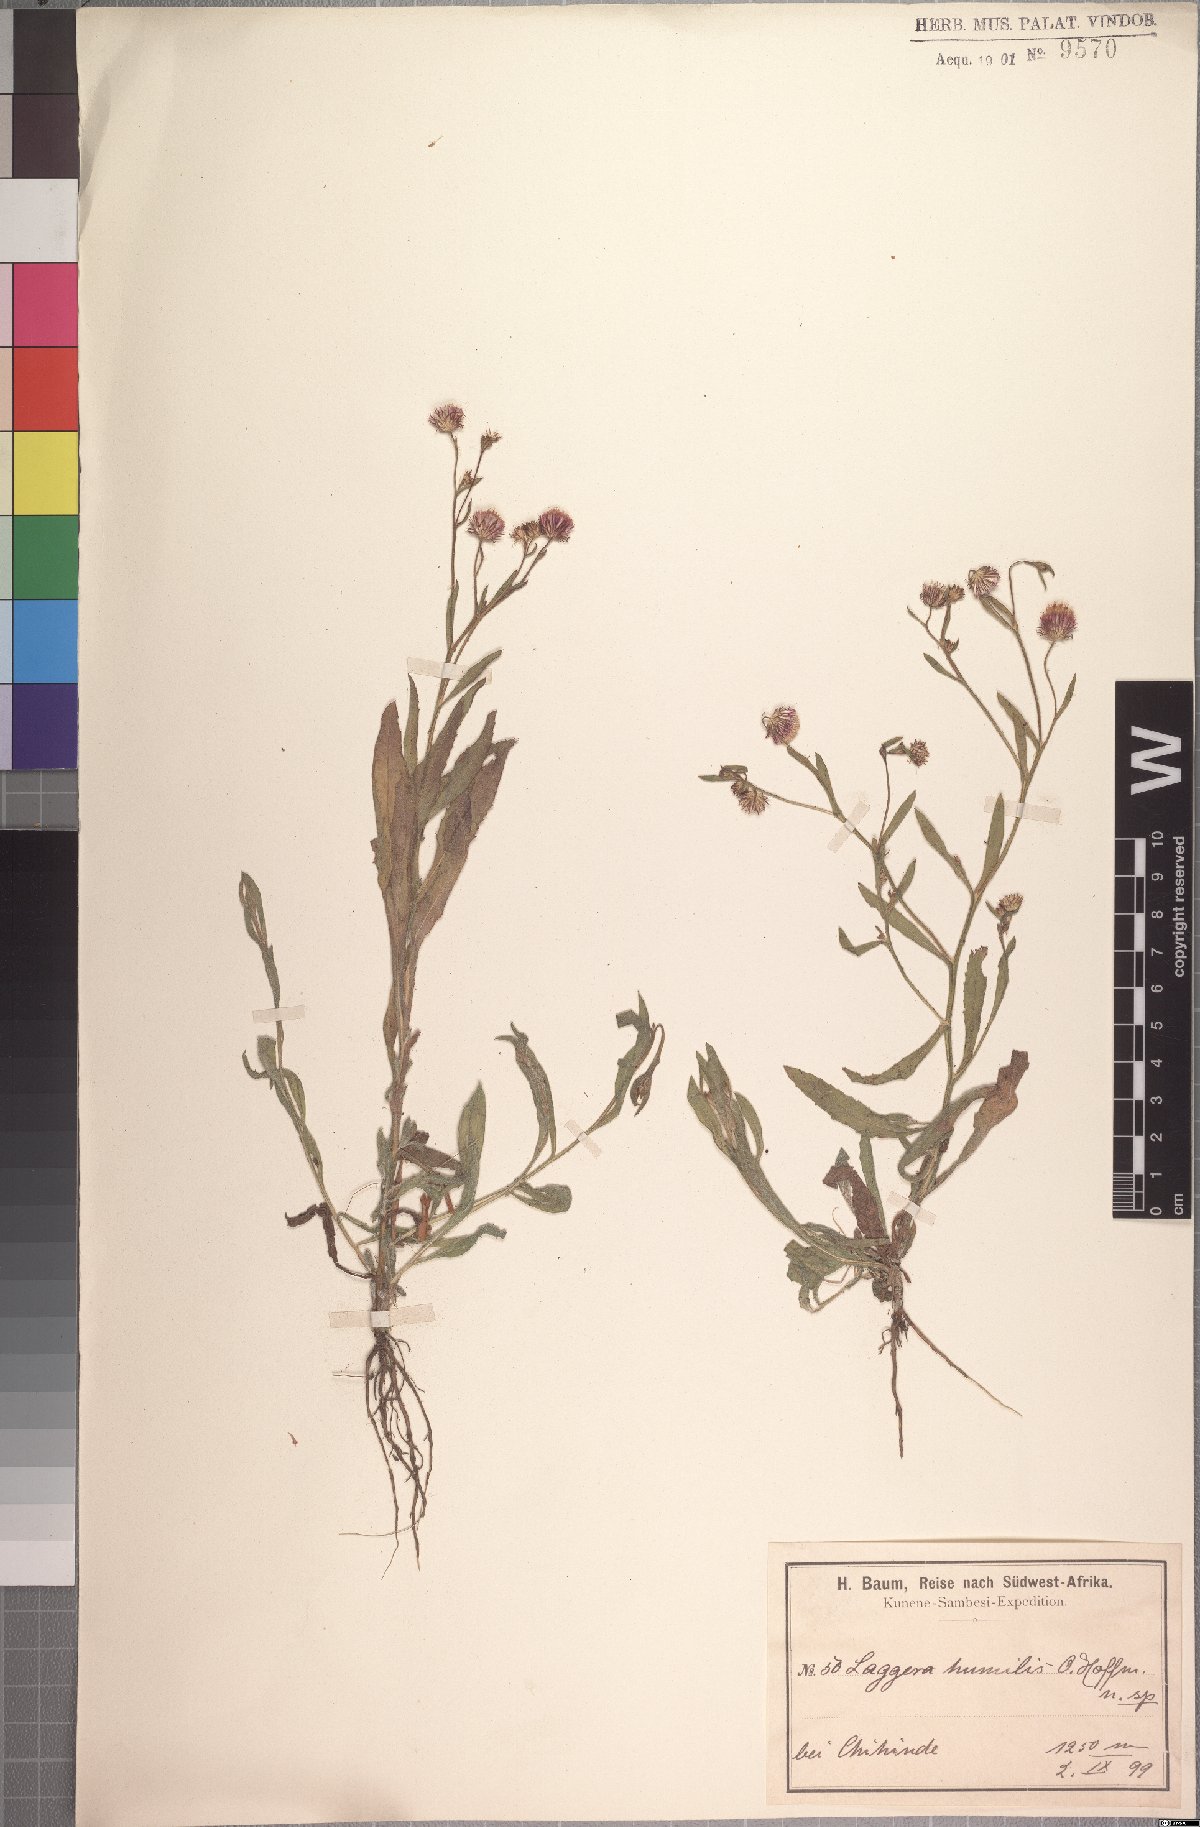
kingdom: Plantae
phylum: Tracheophyta
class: Magnoliopsida
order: Asterales
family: Asteraceae
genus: Nicolasia
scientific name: Nicolasia felicioides
